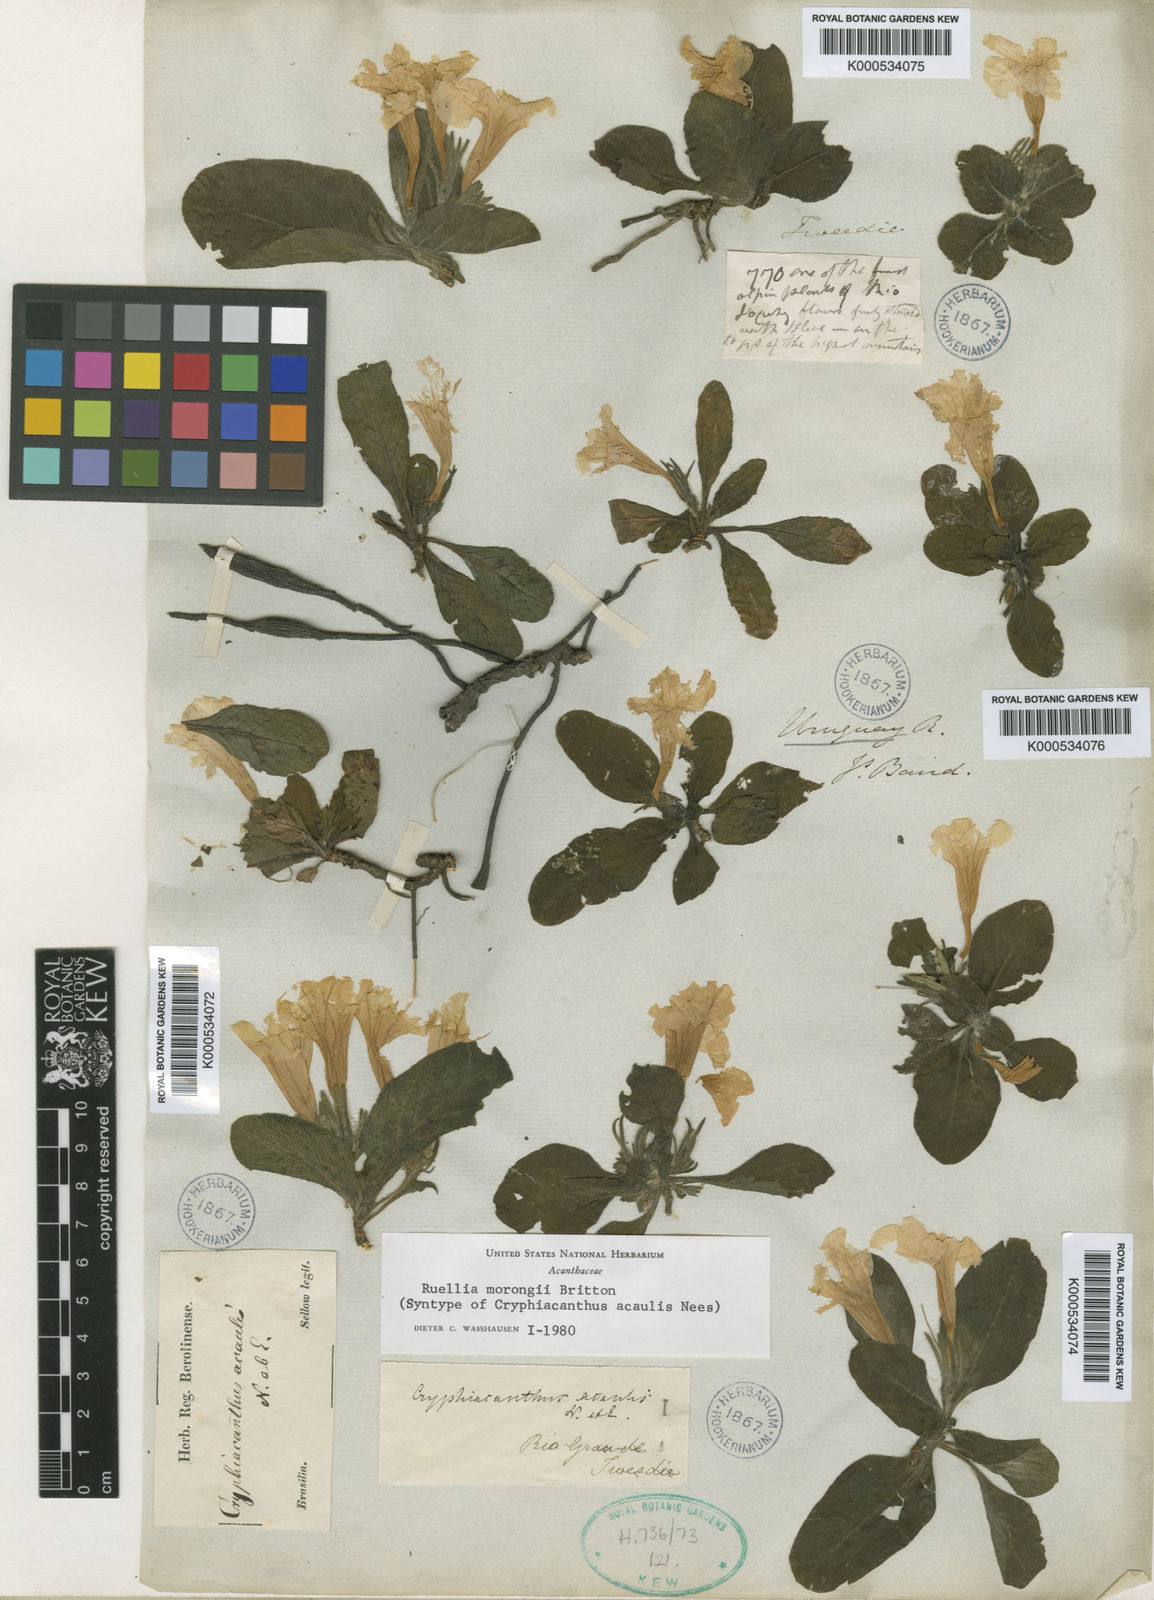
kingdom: Plantae
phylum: Tracheophyta
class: Magnoliopsida
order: Lamiales
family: Acanthaceae
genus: Ruellia
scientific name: Ruellia morongii
